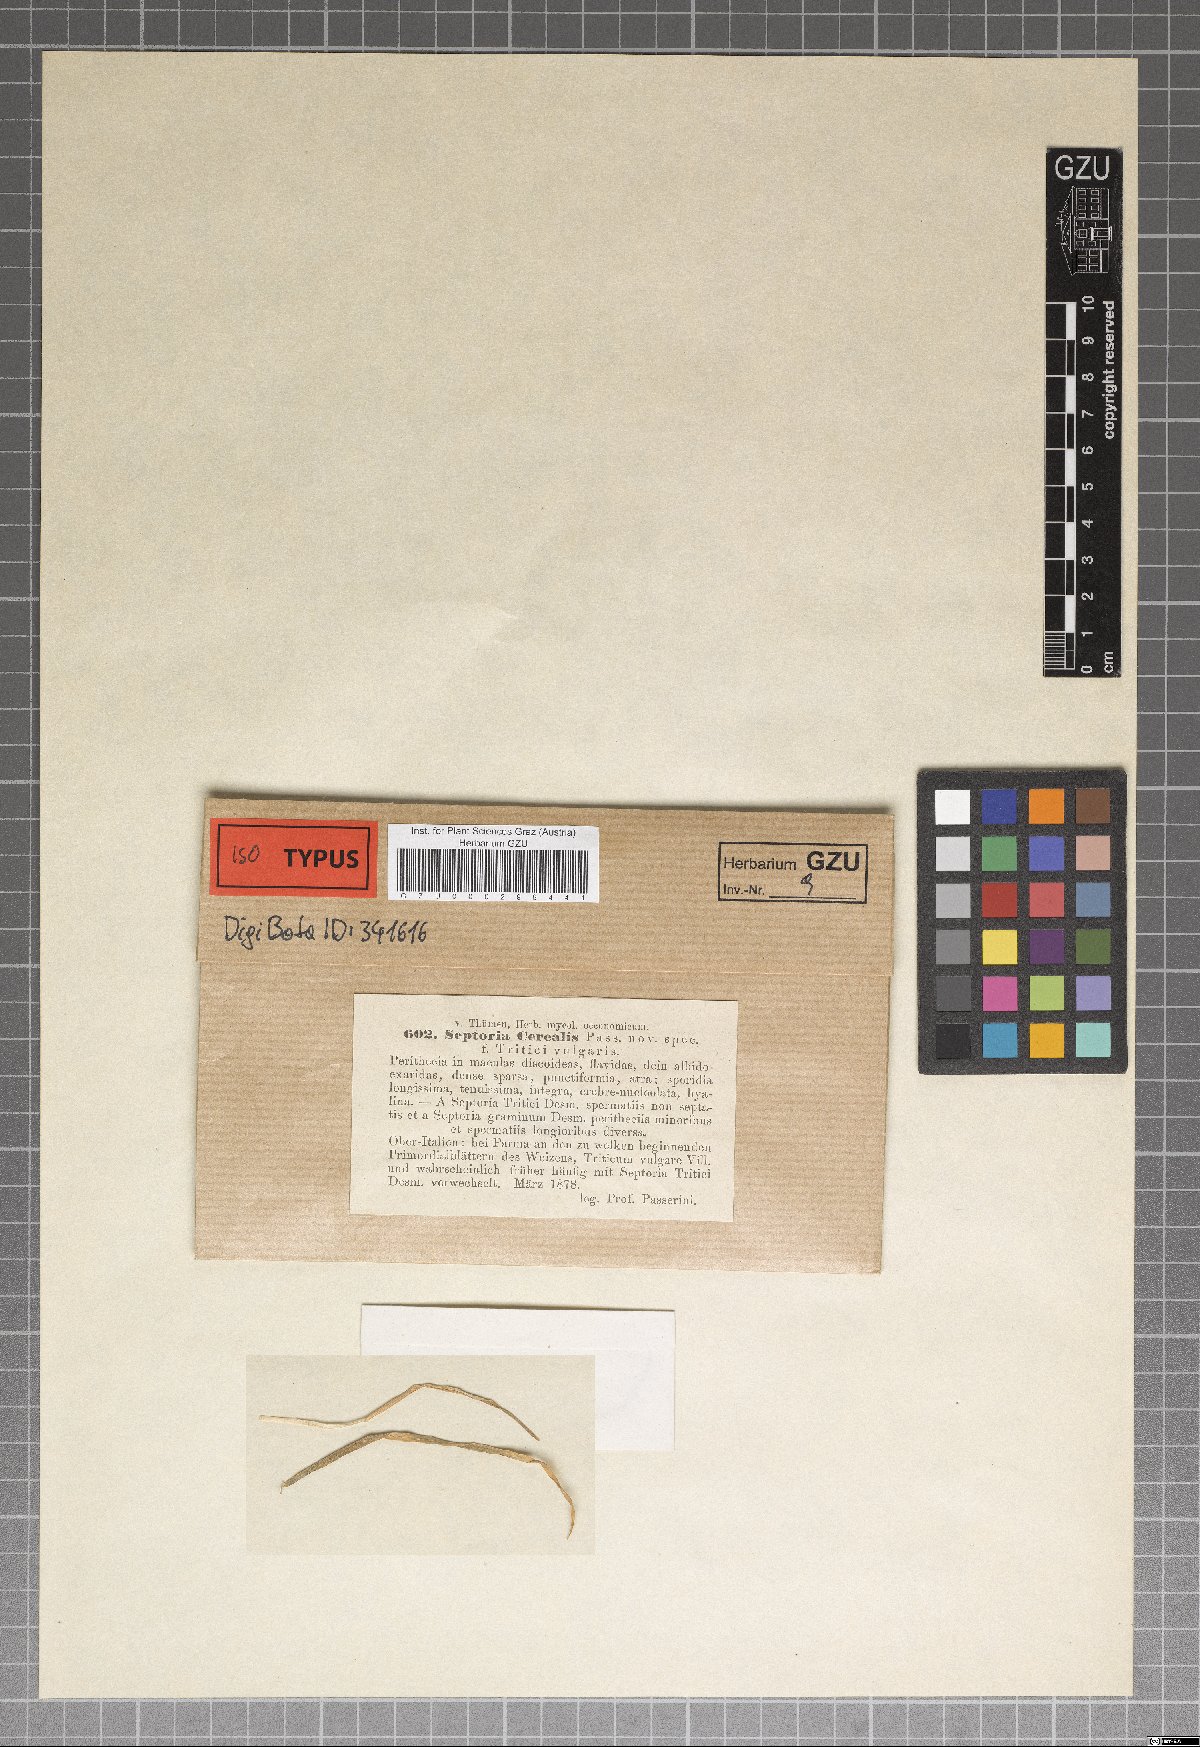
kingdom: Fungi
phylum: Ascomycota
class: Dothideomycetes
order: Mycosphaerellales
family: Mycosphaerellaceae
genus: Septoria
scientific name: Septoria
